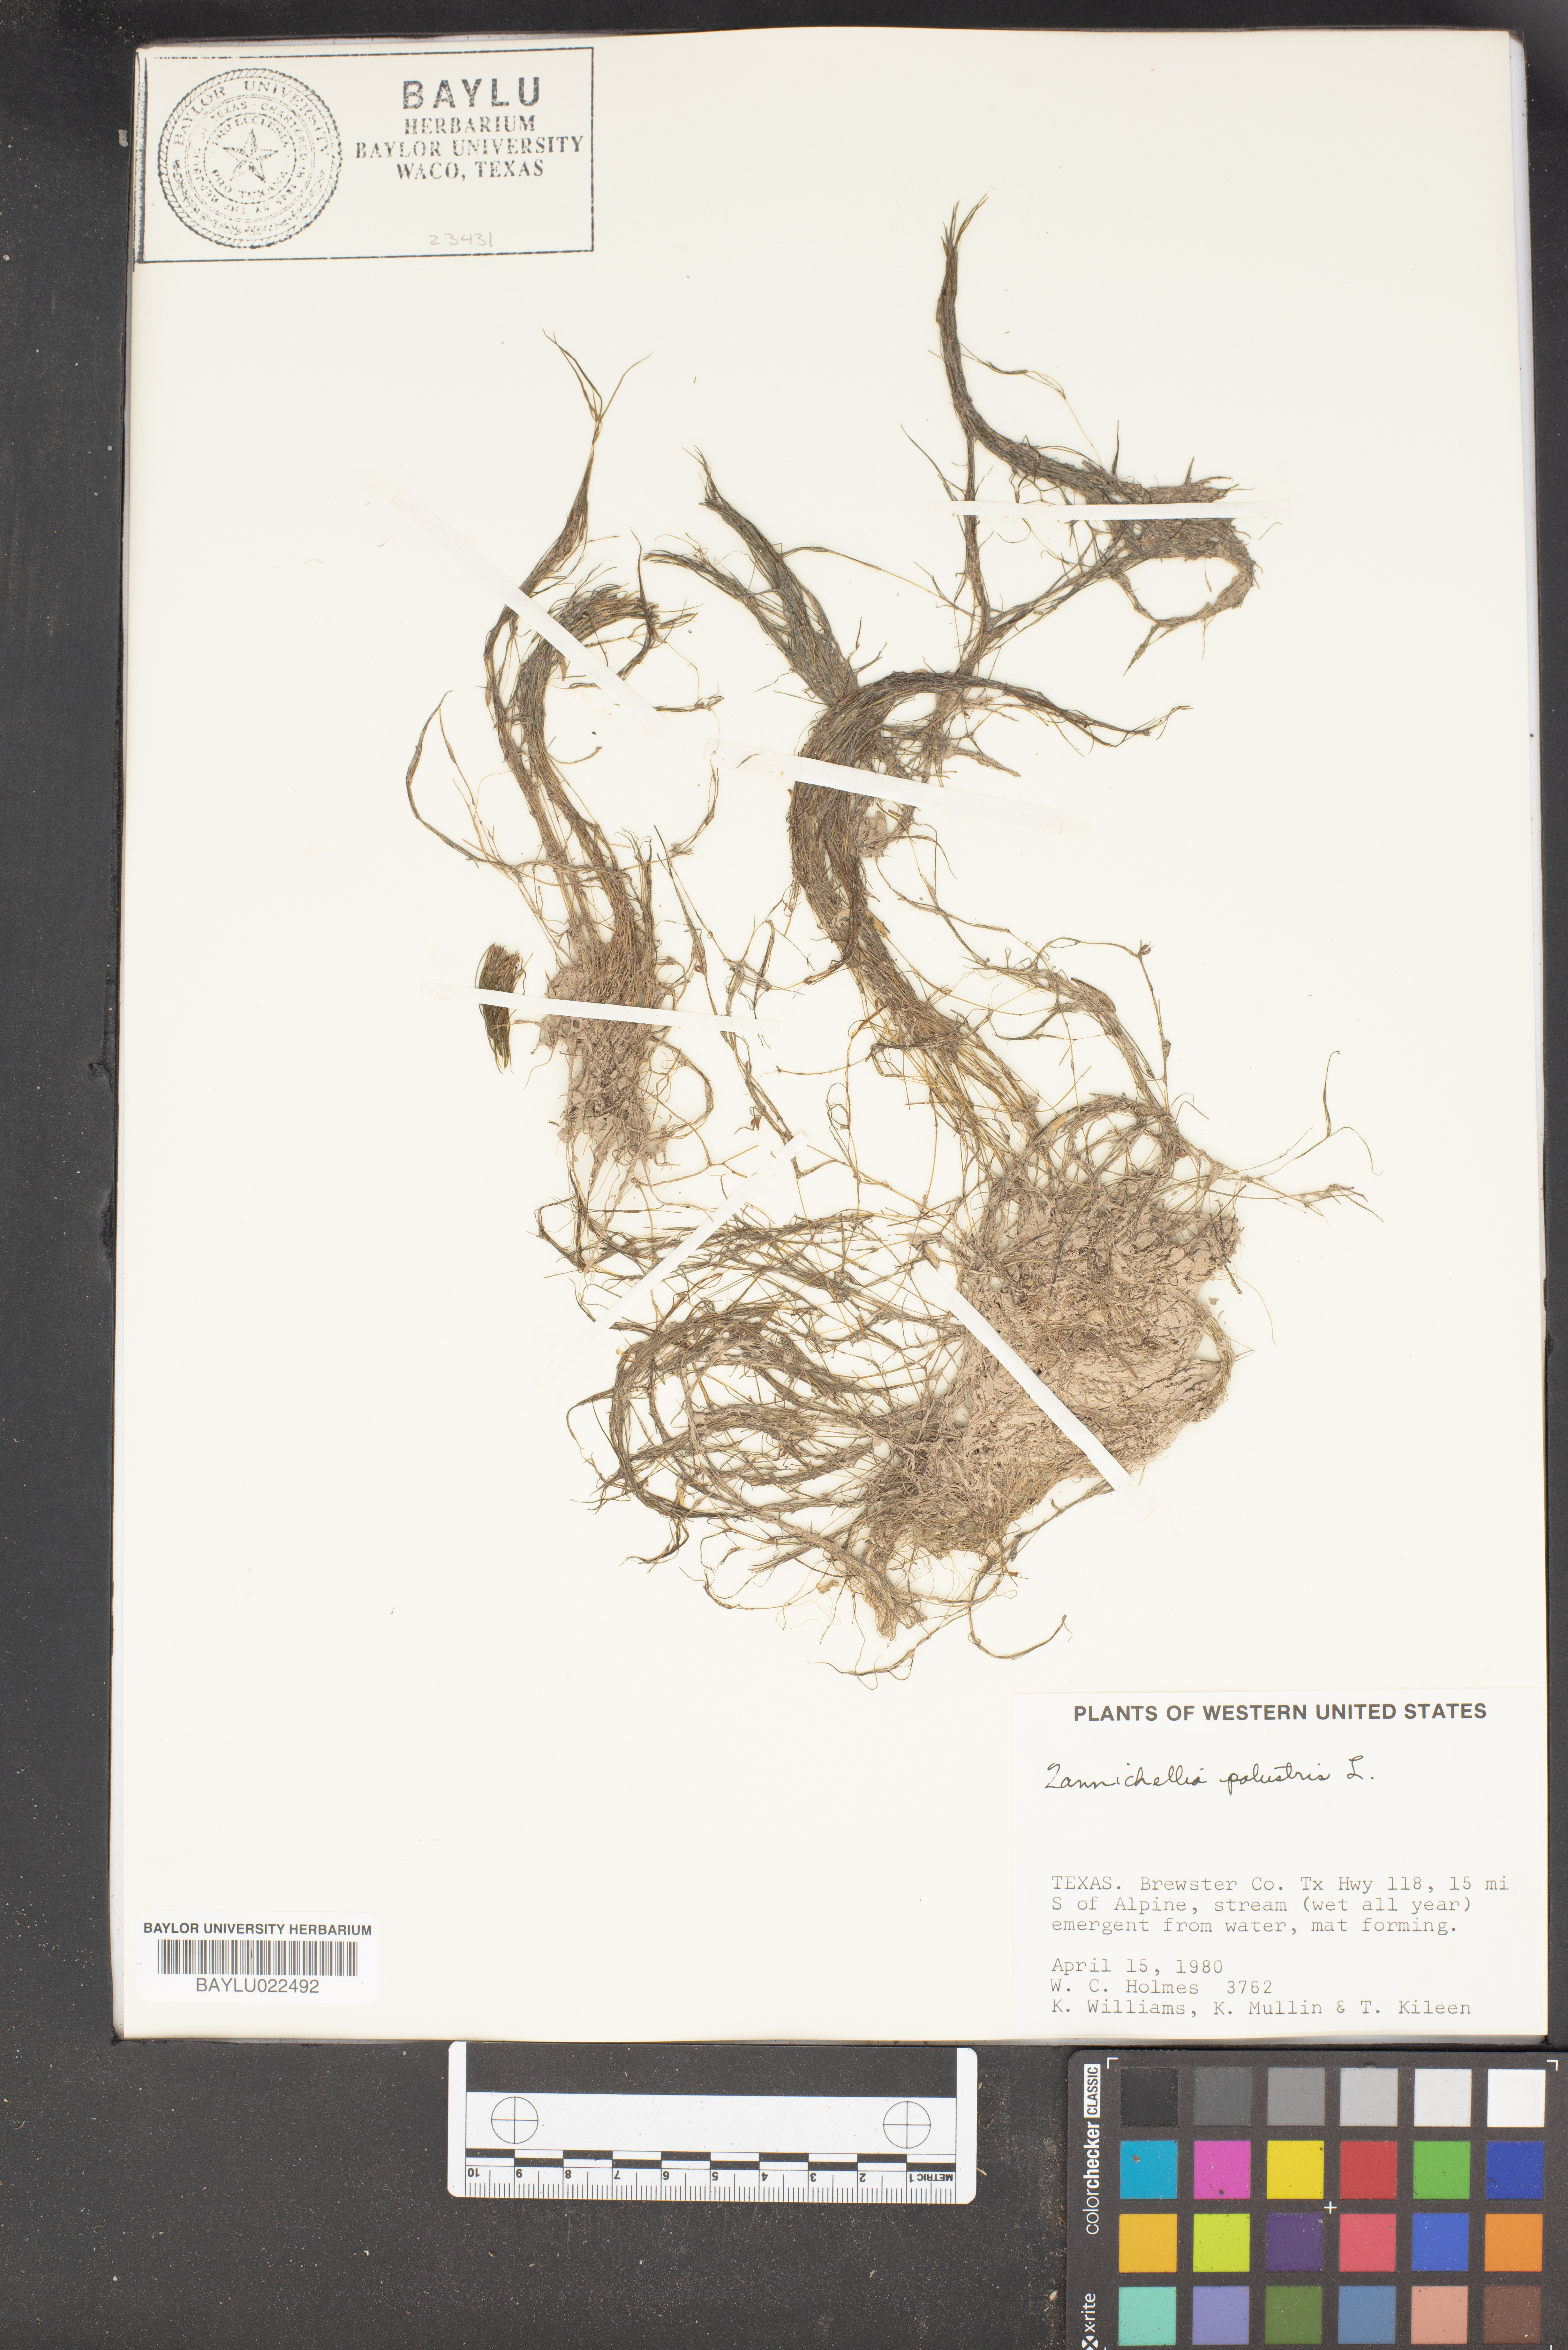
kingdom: Plantae
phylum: Tracheophyta
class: Liliopsida
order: Alismatales
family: Potamogetonaceae
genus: Zannichellia
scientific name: Zannichellia palustris
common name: Horned pondweed
